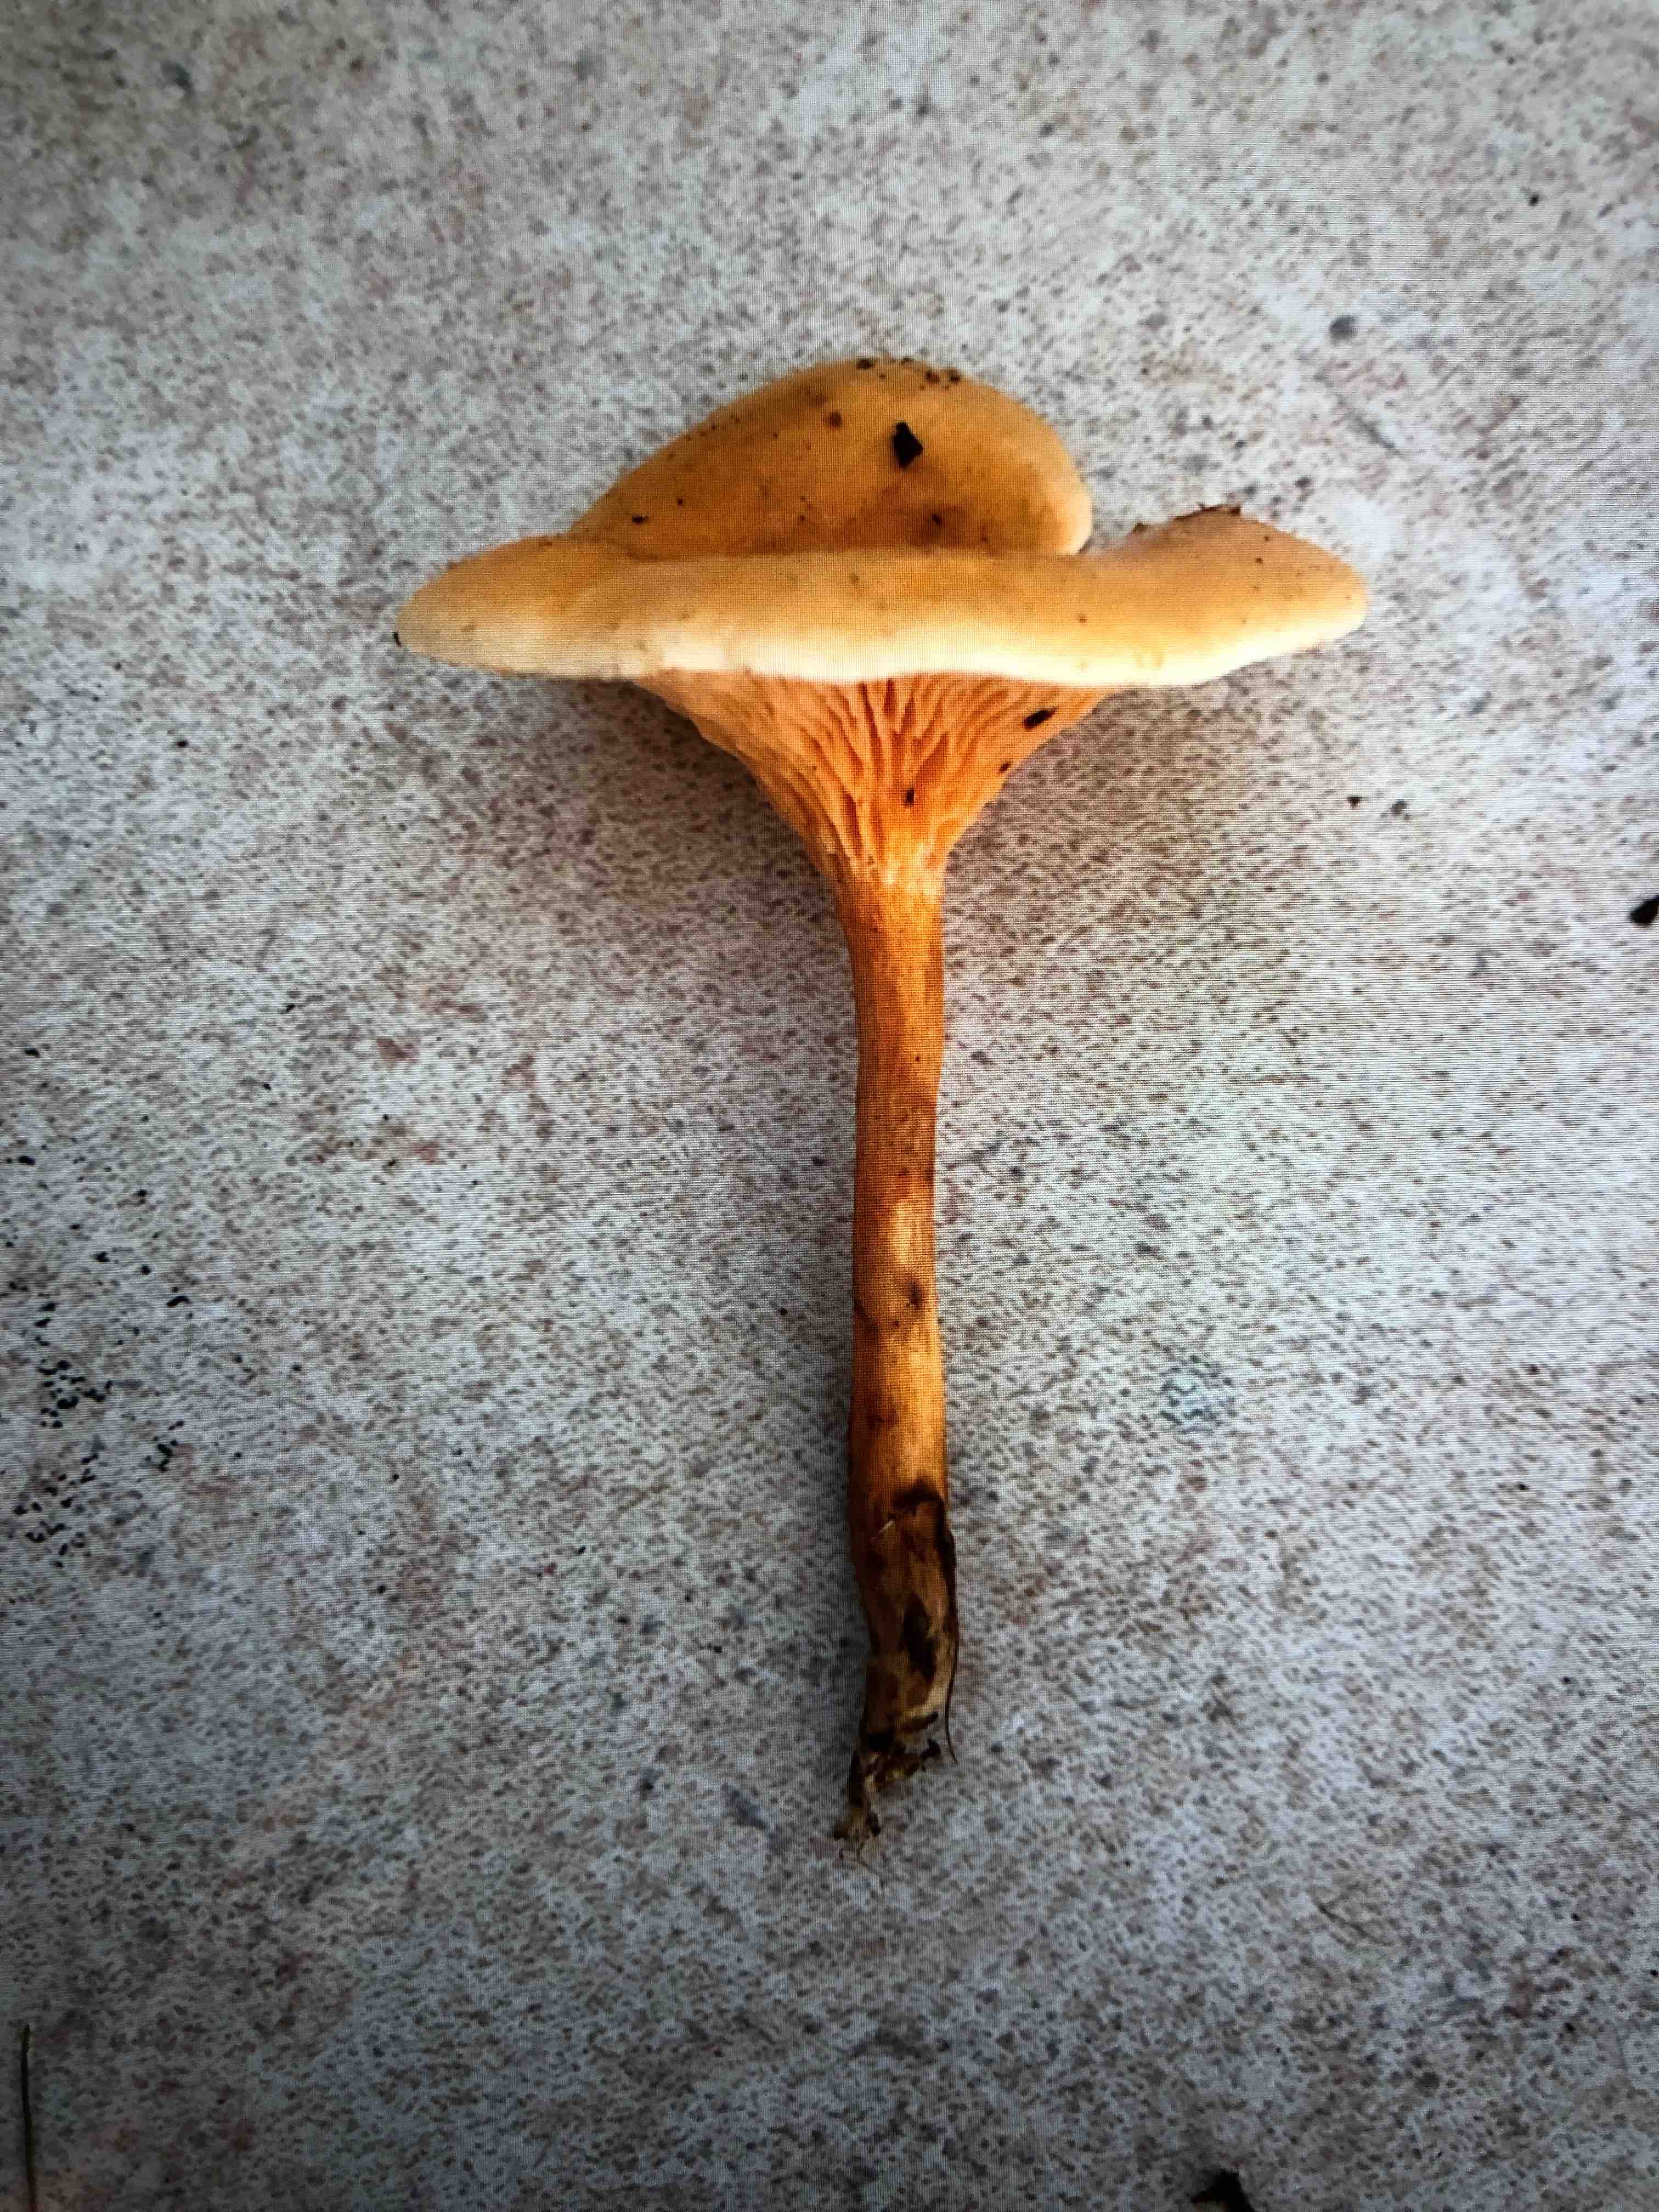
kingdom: Fungi
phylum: Basidiomycota
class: Agaricomycetes
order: Boletales
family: Hygrophoropsidaceae
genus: Hygrophoropsis
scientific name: Hygrophoropsis aurantiaca
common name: almindelig orangekantarel
